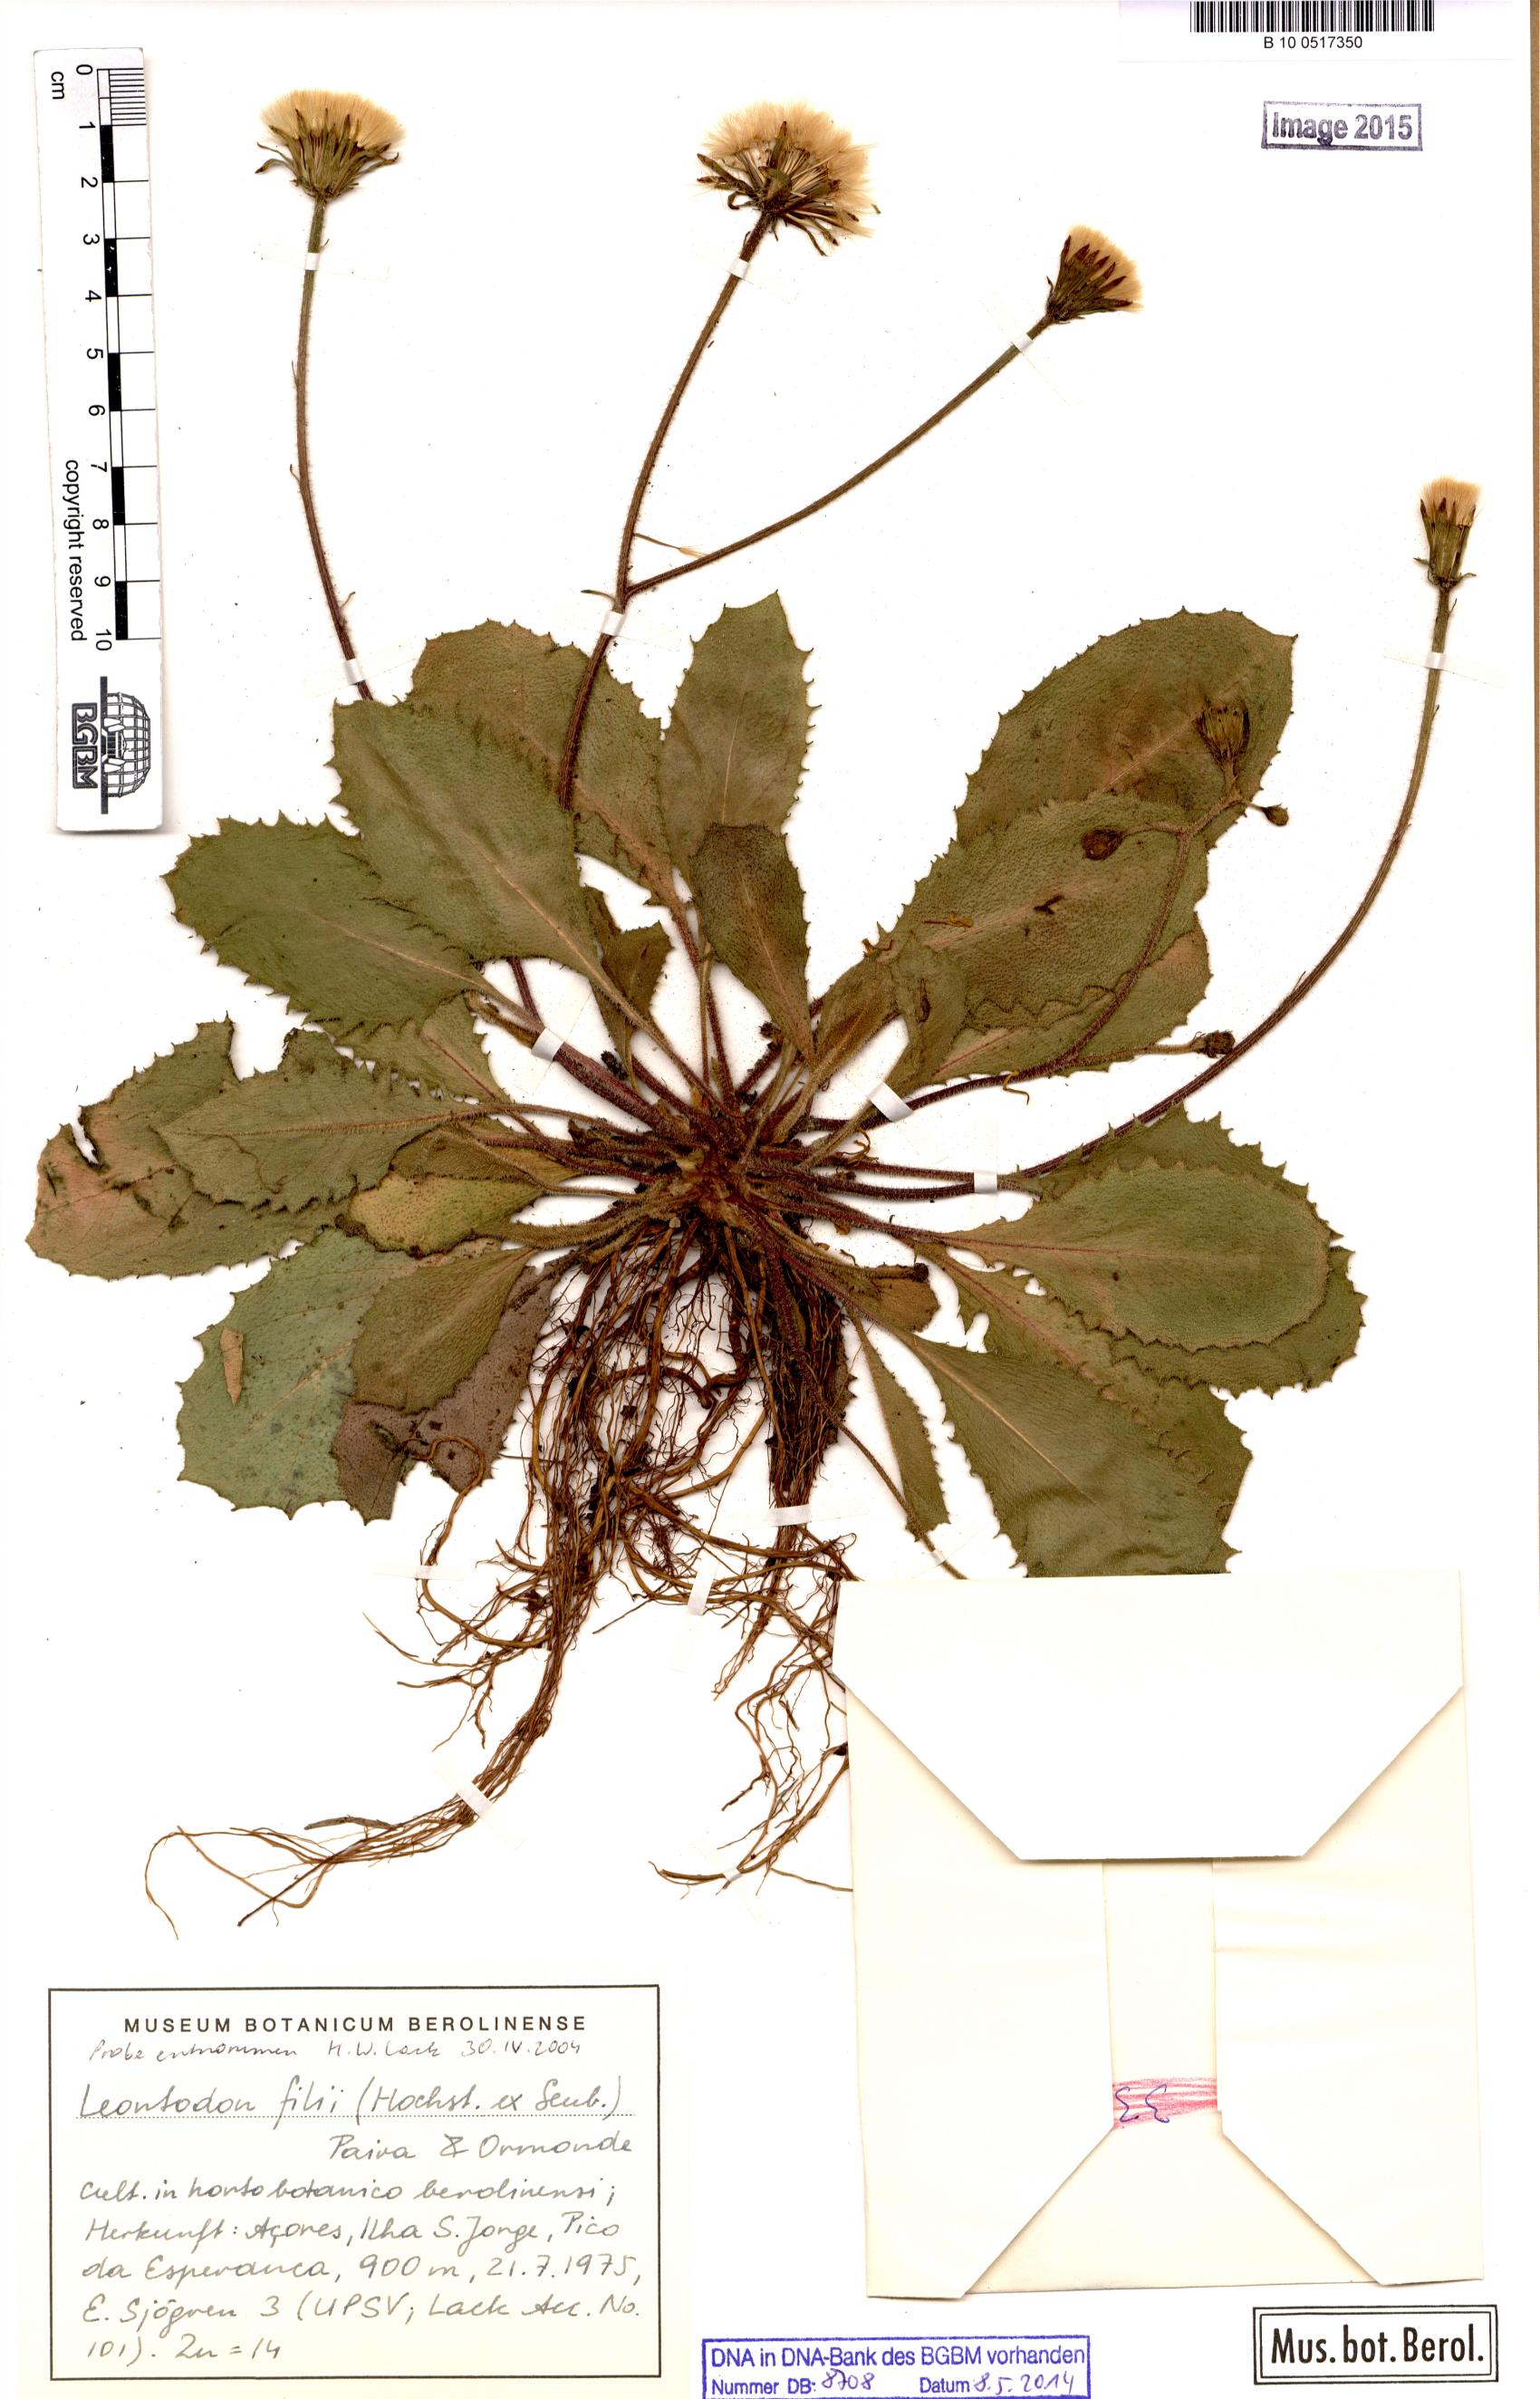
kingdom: Plantae
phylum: Tracheophyta
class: Magnoliopsida
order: Asterales
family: Asteraceae
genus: Leontodon
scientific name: Leontodon filii
